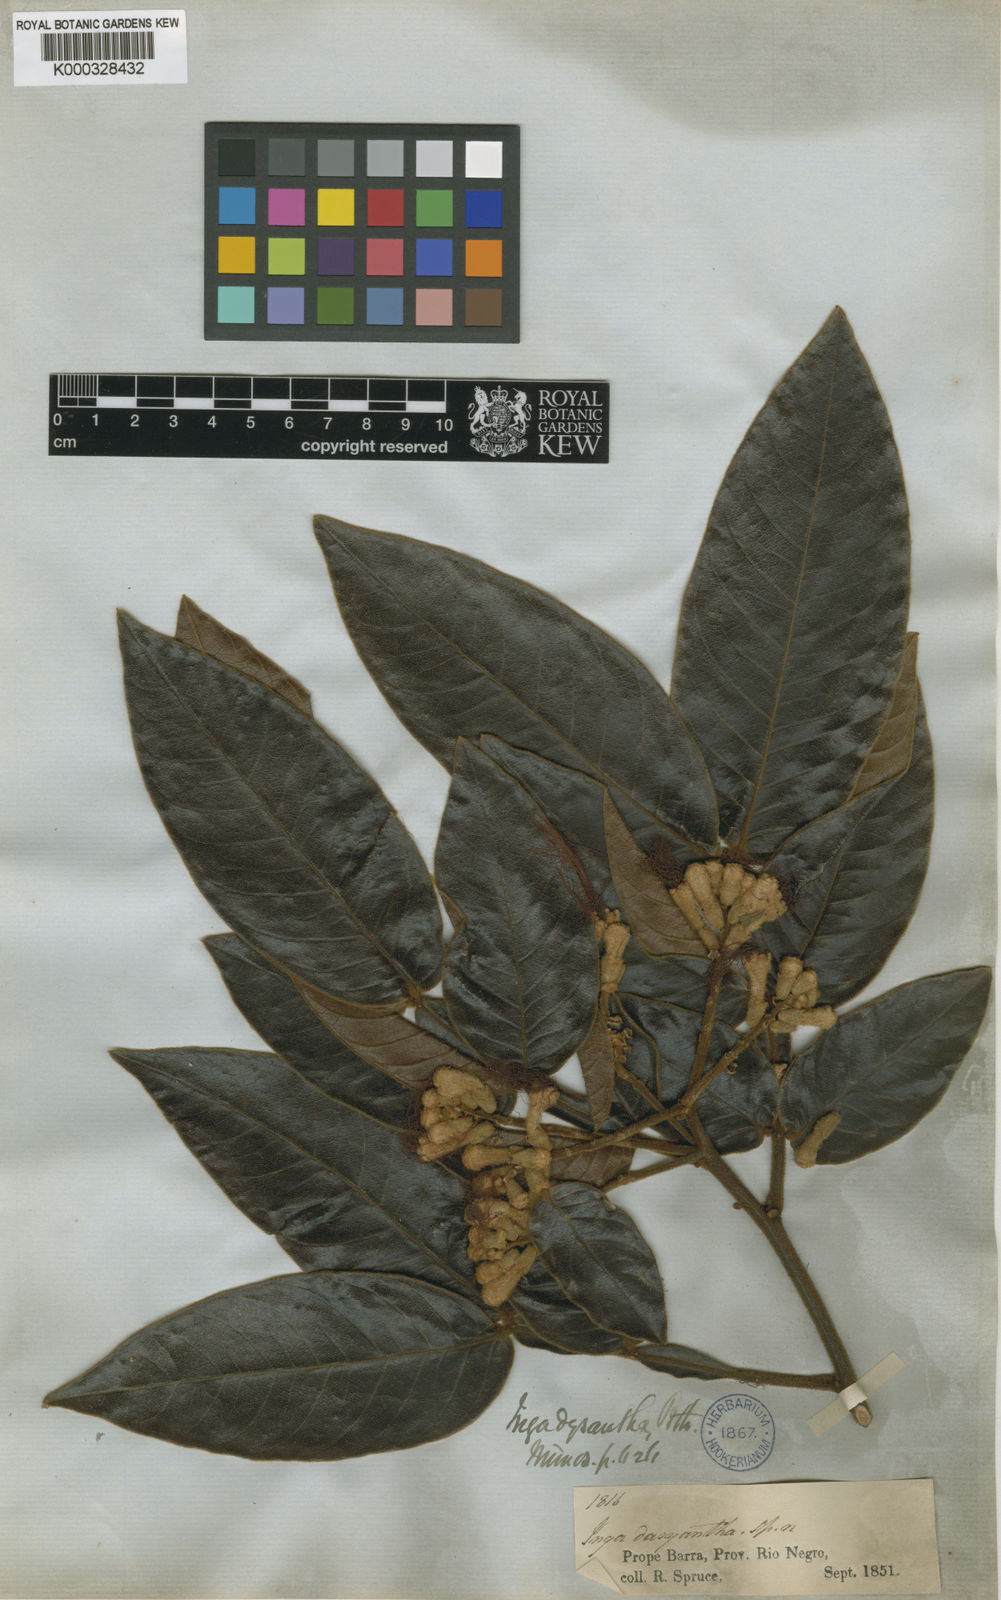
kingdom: Plantae
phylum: Tracheophyta
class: Magnoliopsida
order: Fabales
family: Fabaceae
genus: Inga
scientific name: Inga cayennensis
